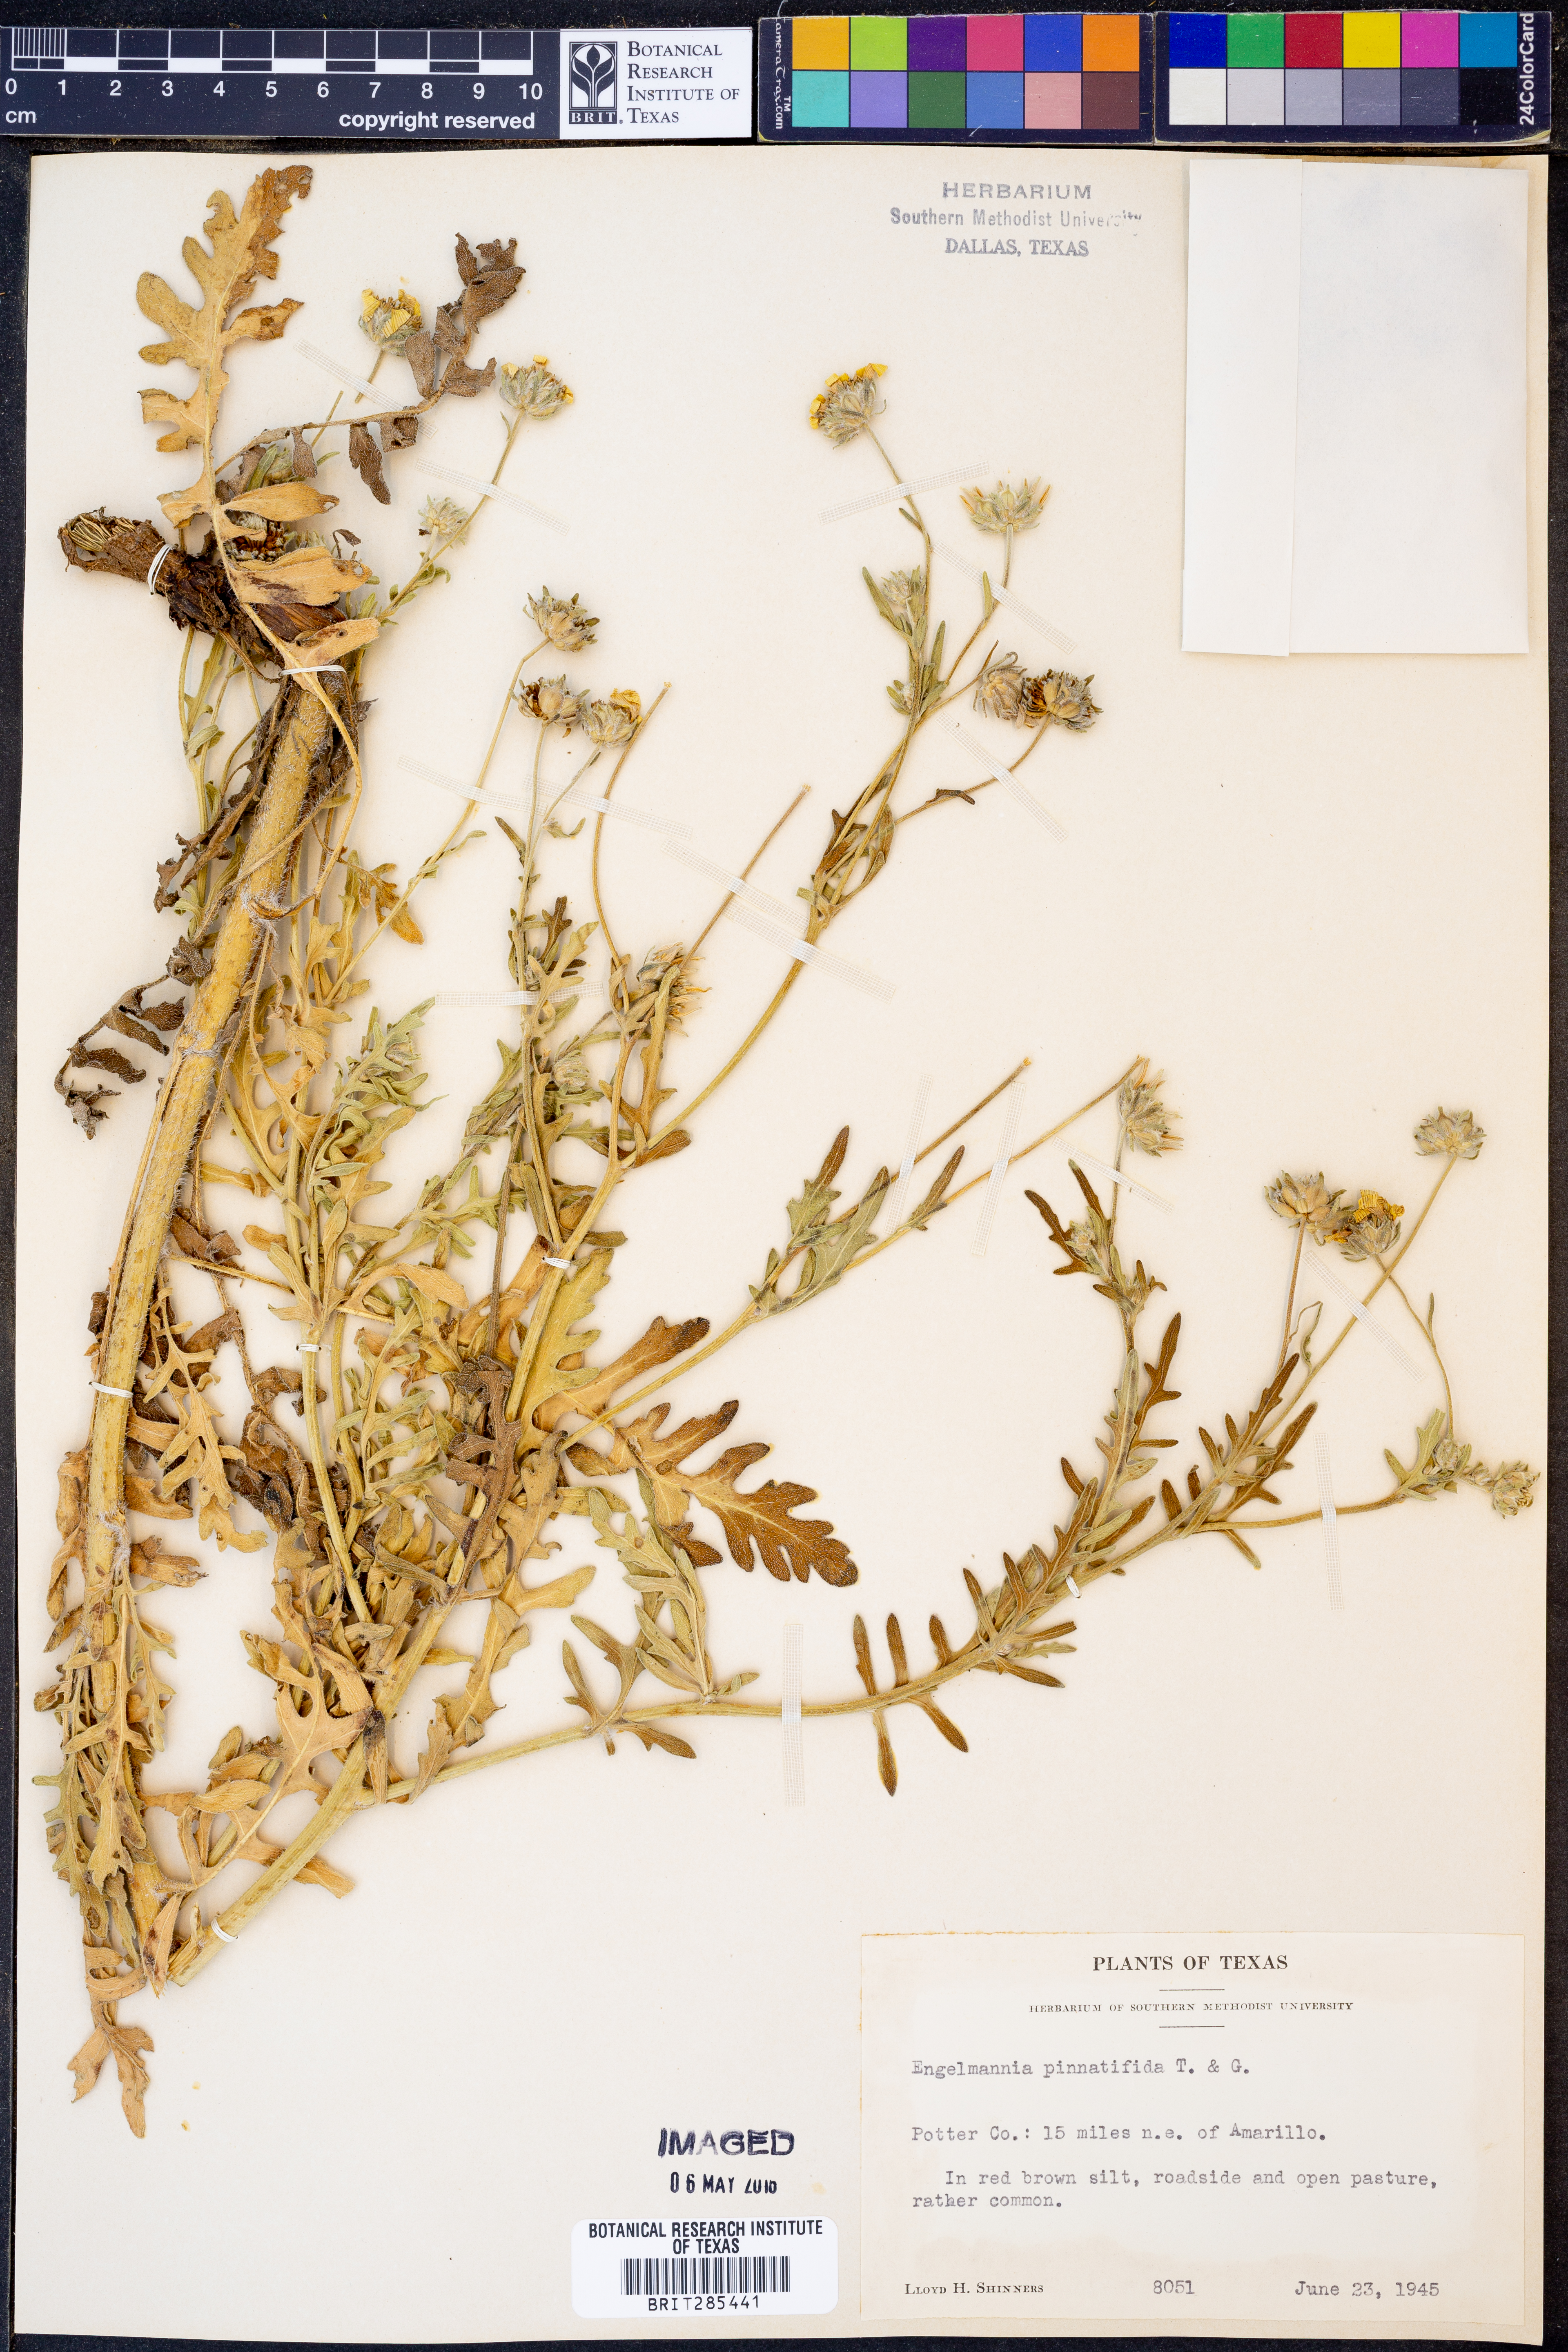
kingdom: Plantae
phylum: Tracheophyta
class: Magnoliopsida
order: Asterales
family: Asteraceae
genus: Engelmannia
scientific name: Engelmannia peristenia
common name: Engelmann's daisy
